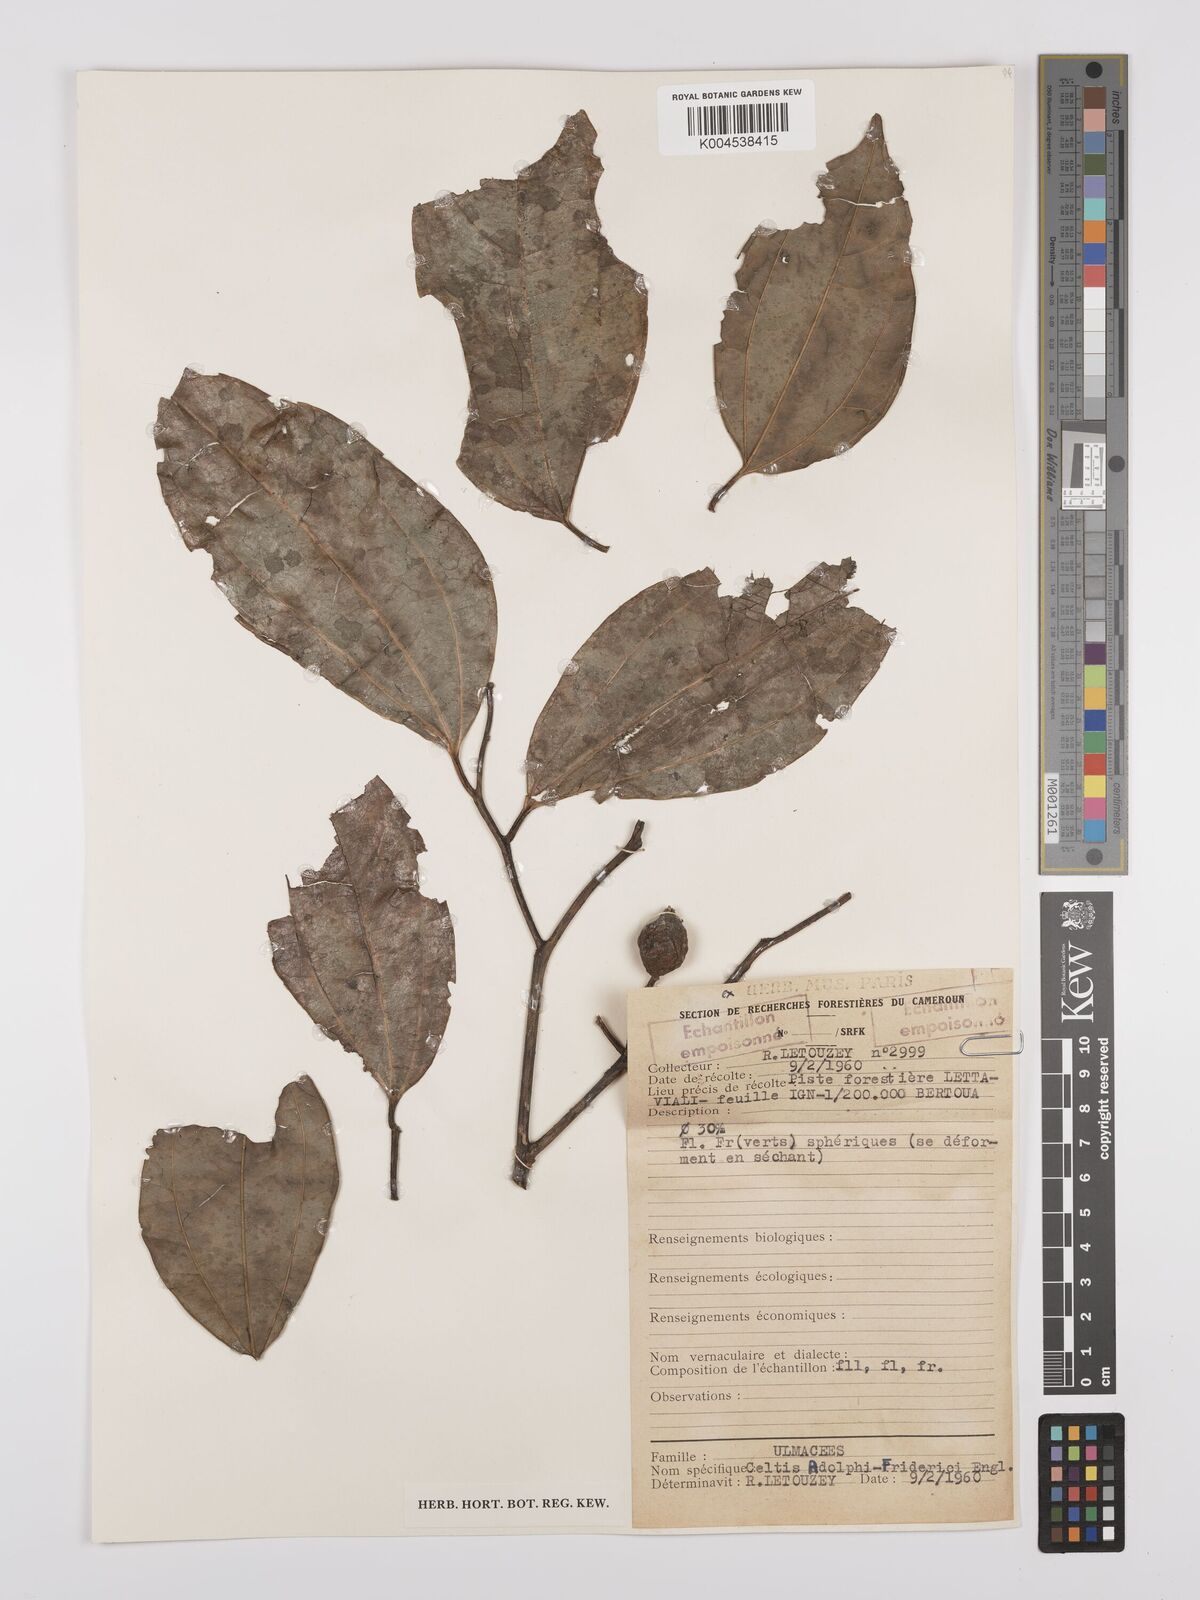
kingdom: Plantae
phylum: Tracheophyta
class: Magnoliopsida
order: Rosales
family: Cannabaceae
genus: Celtis
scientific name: Celtis adolfi-friderici
